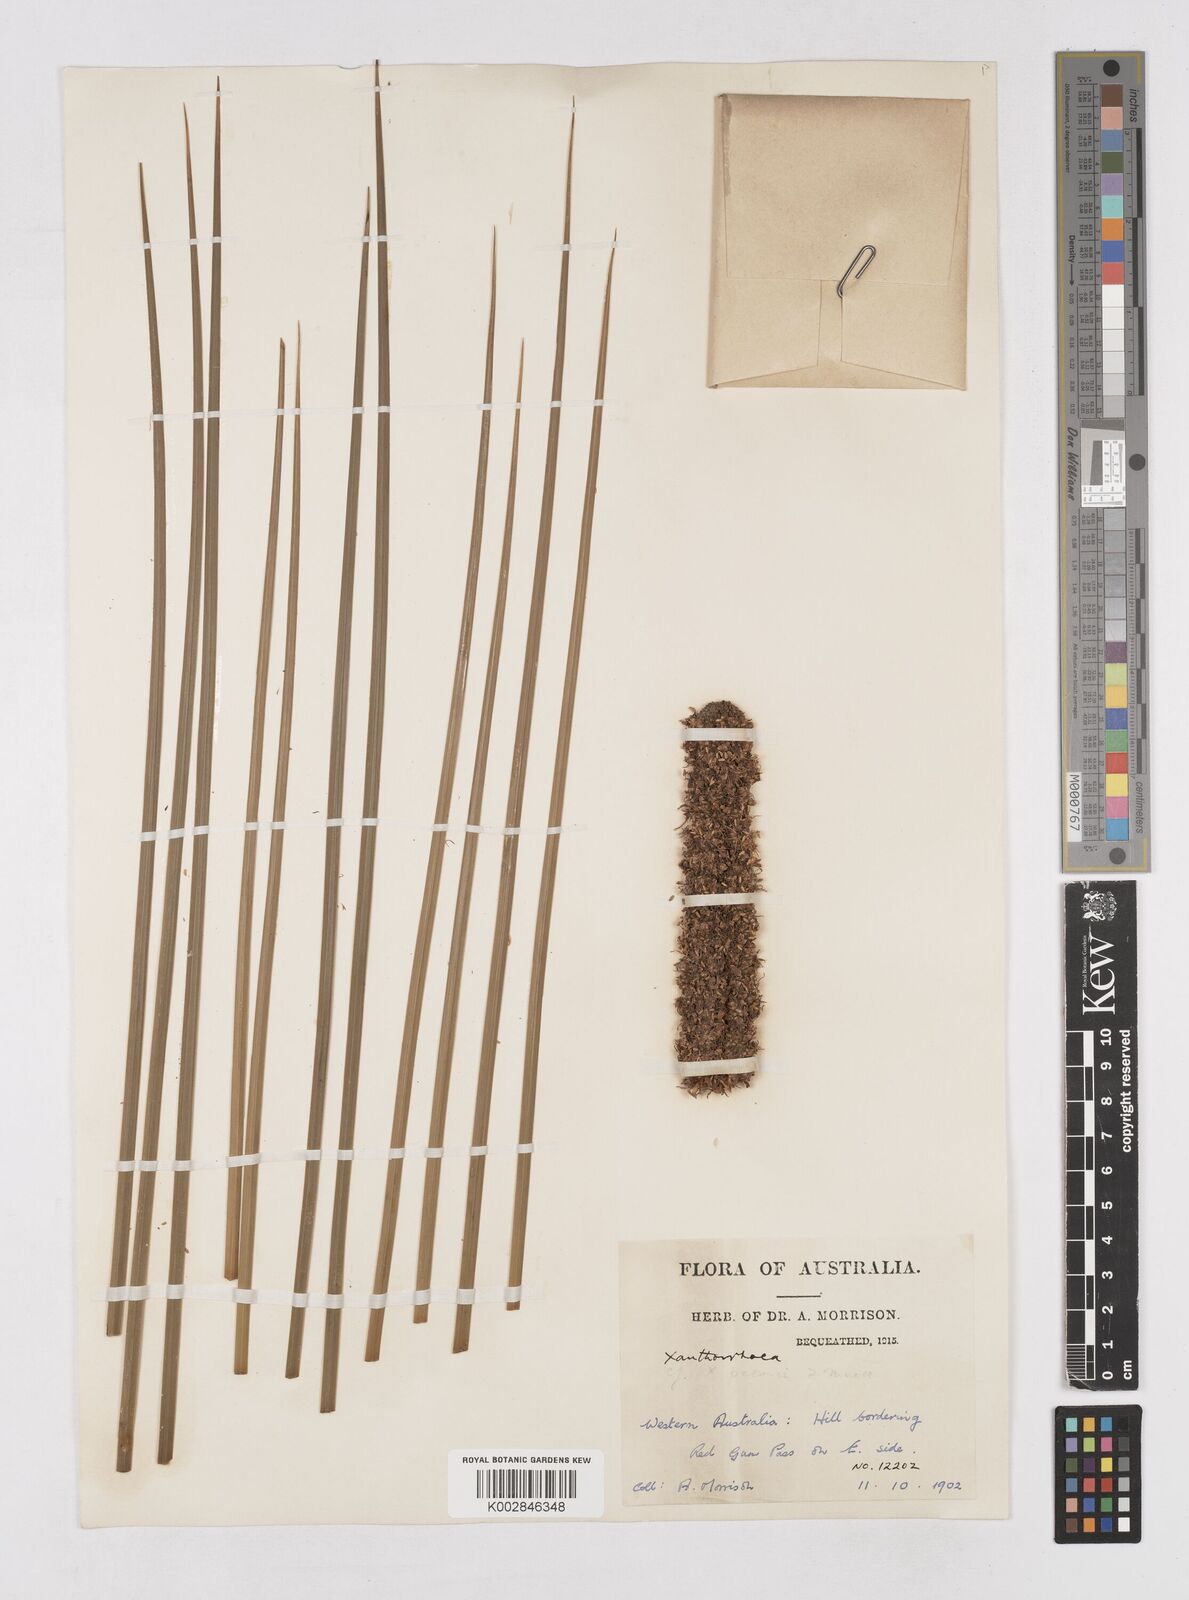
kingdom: Plantae
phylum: Tracheophyta
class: Liliopsida
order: Asparagales
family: Asphodelaceae
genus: Xanthorrhoea
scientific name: Xanthorrhoea preissii
